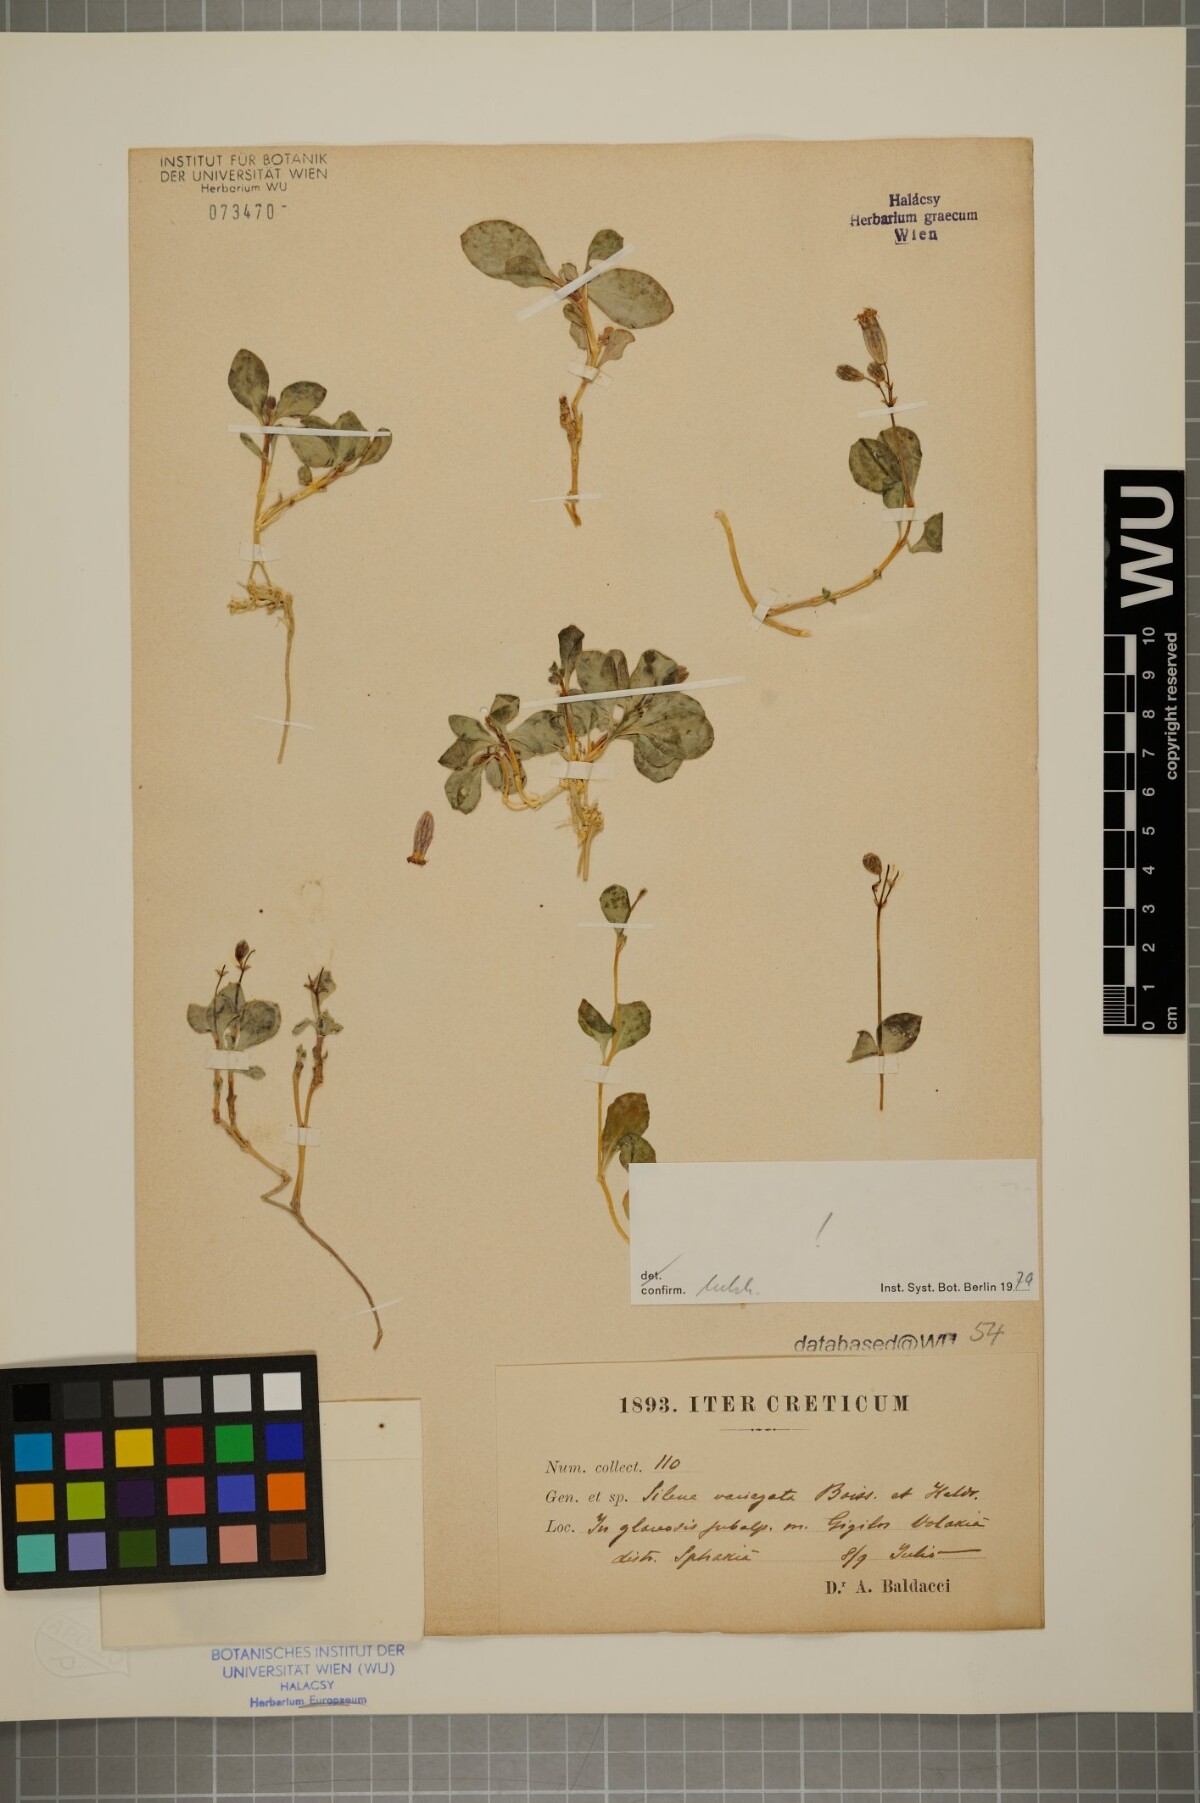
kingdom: Plantae
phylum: Tracheophyta
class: Magnoliopsida
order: Caryophyllales
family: Caryophyllaceae
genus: Silene
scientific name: Silene variegata
